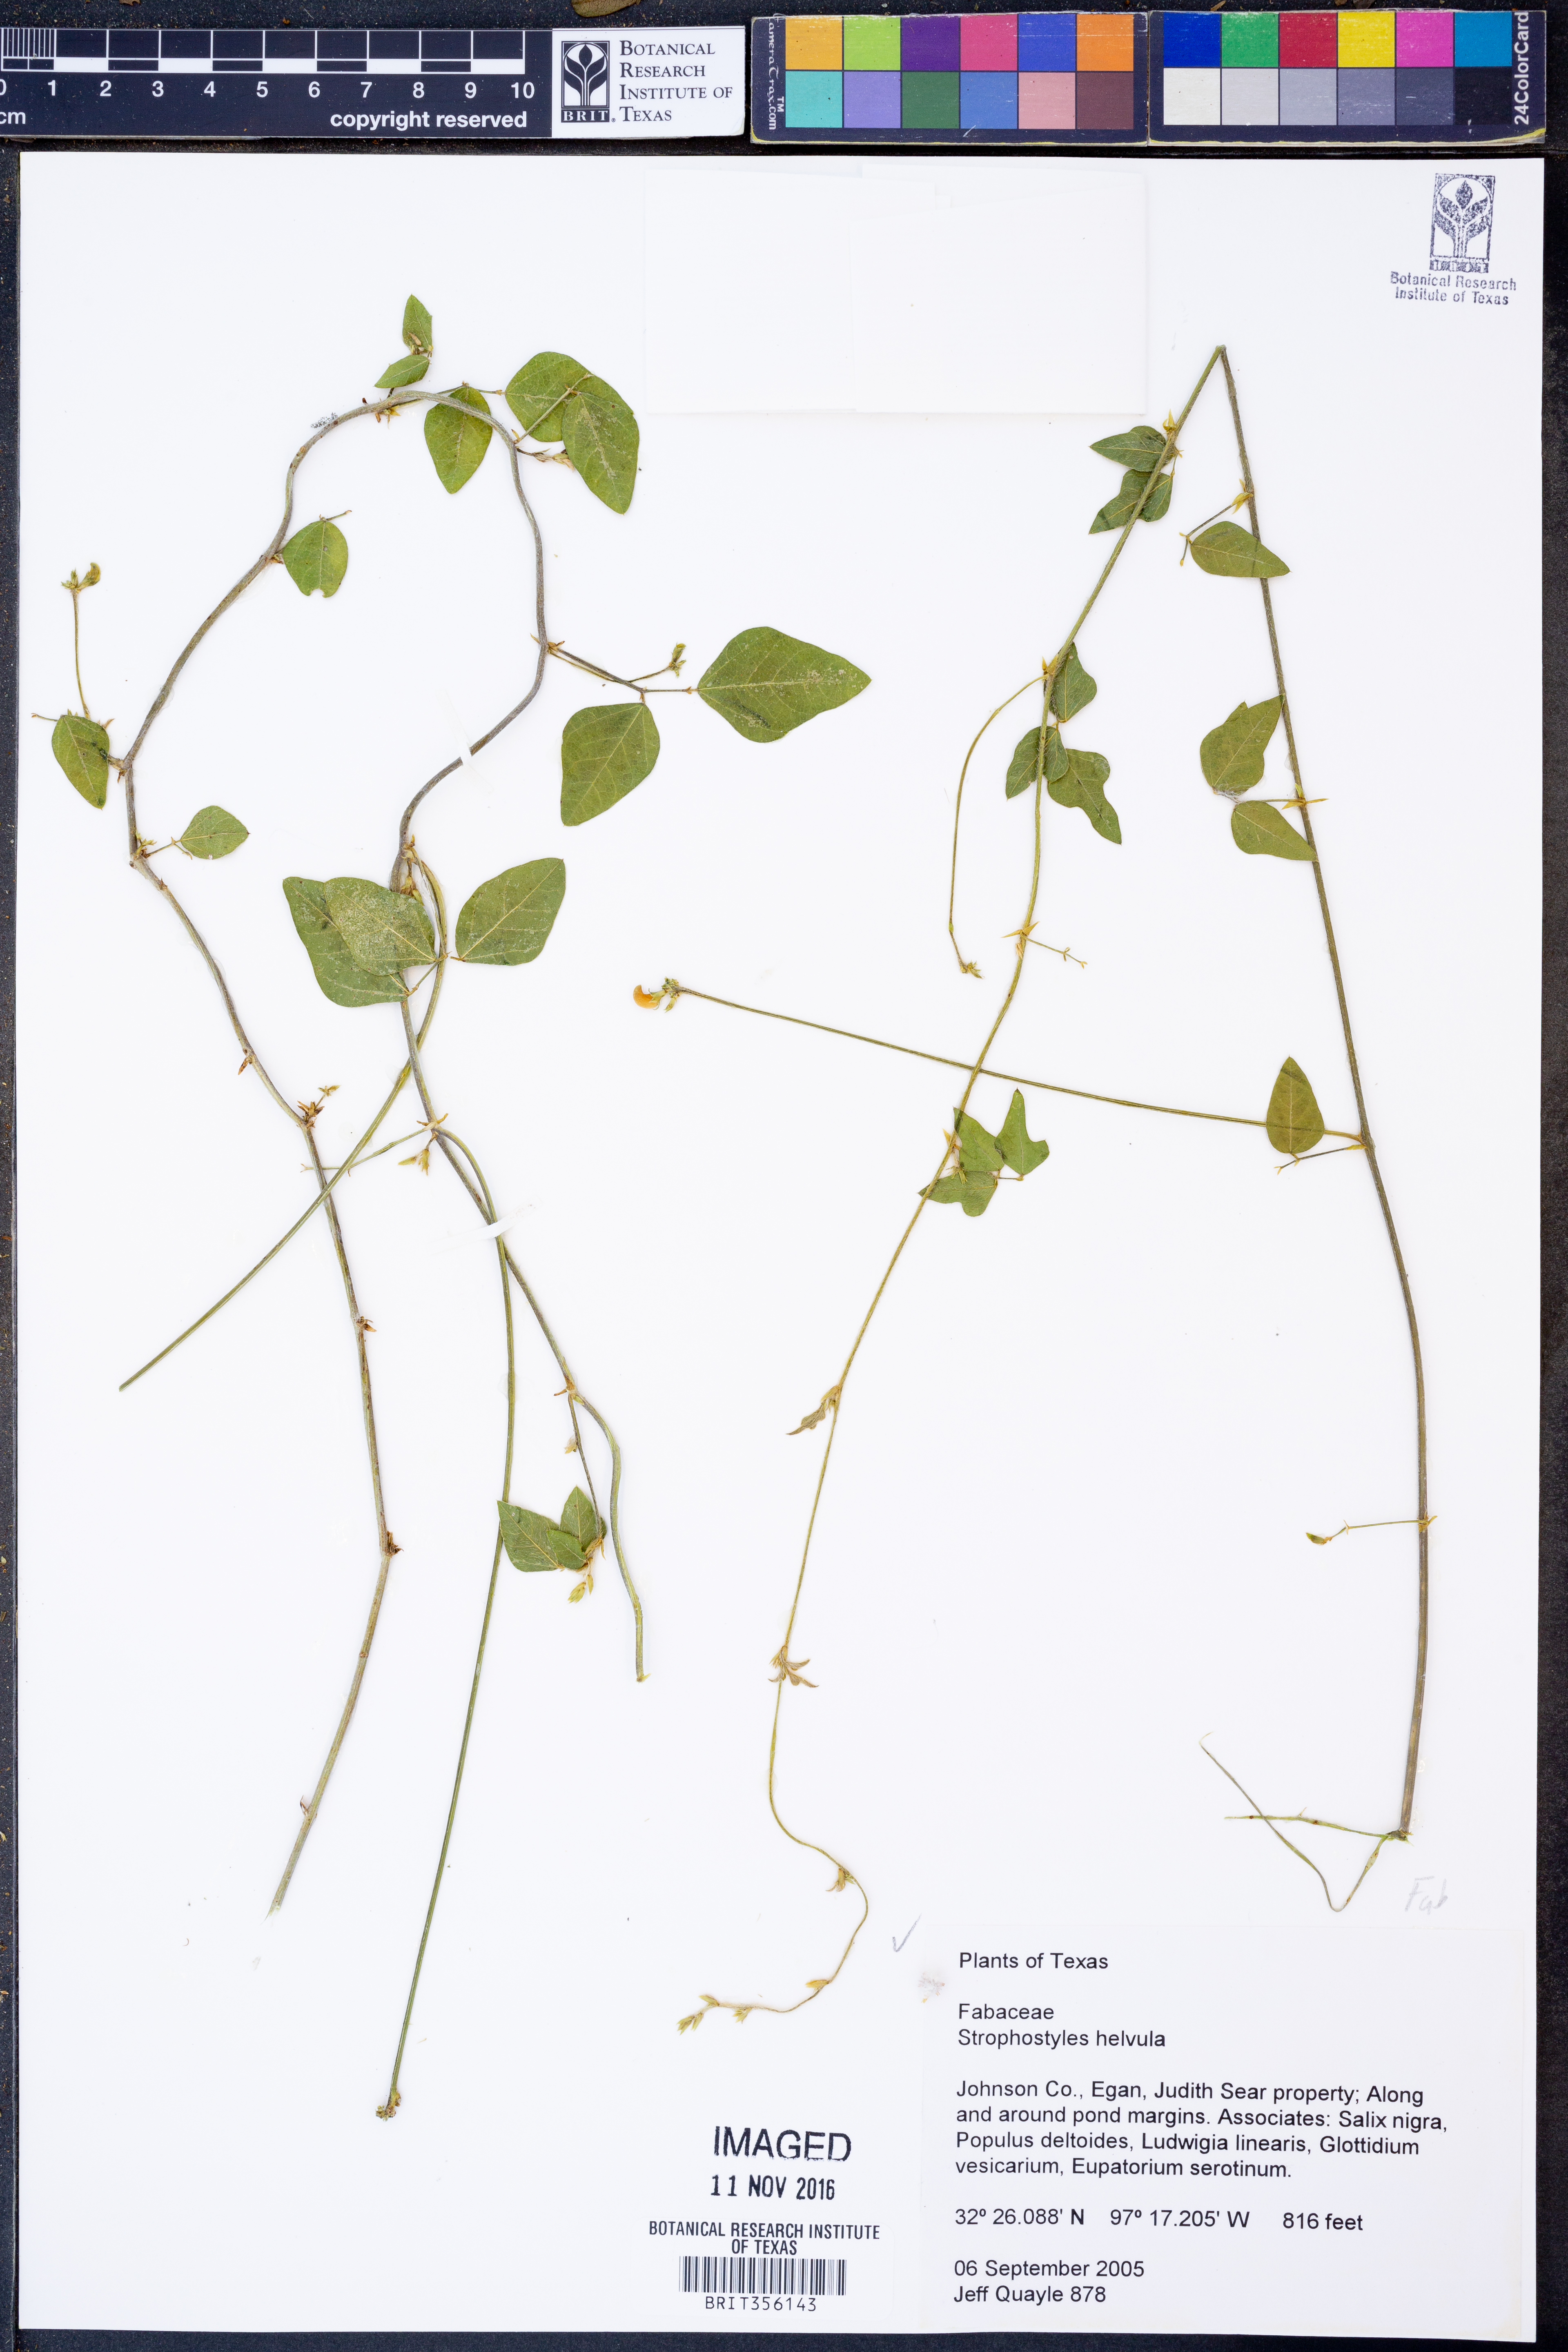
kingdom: Plantae
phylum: Tracheophyta
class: Magnoliopsida
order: Fabales
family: Fabaceae
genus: Strophostyles
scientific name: Strophostyles helvola
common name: Trailing wild bean
